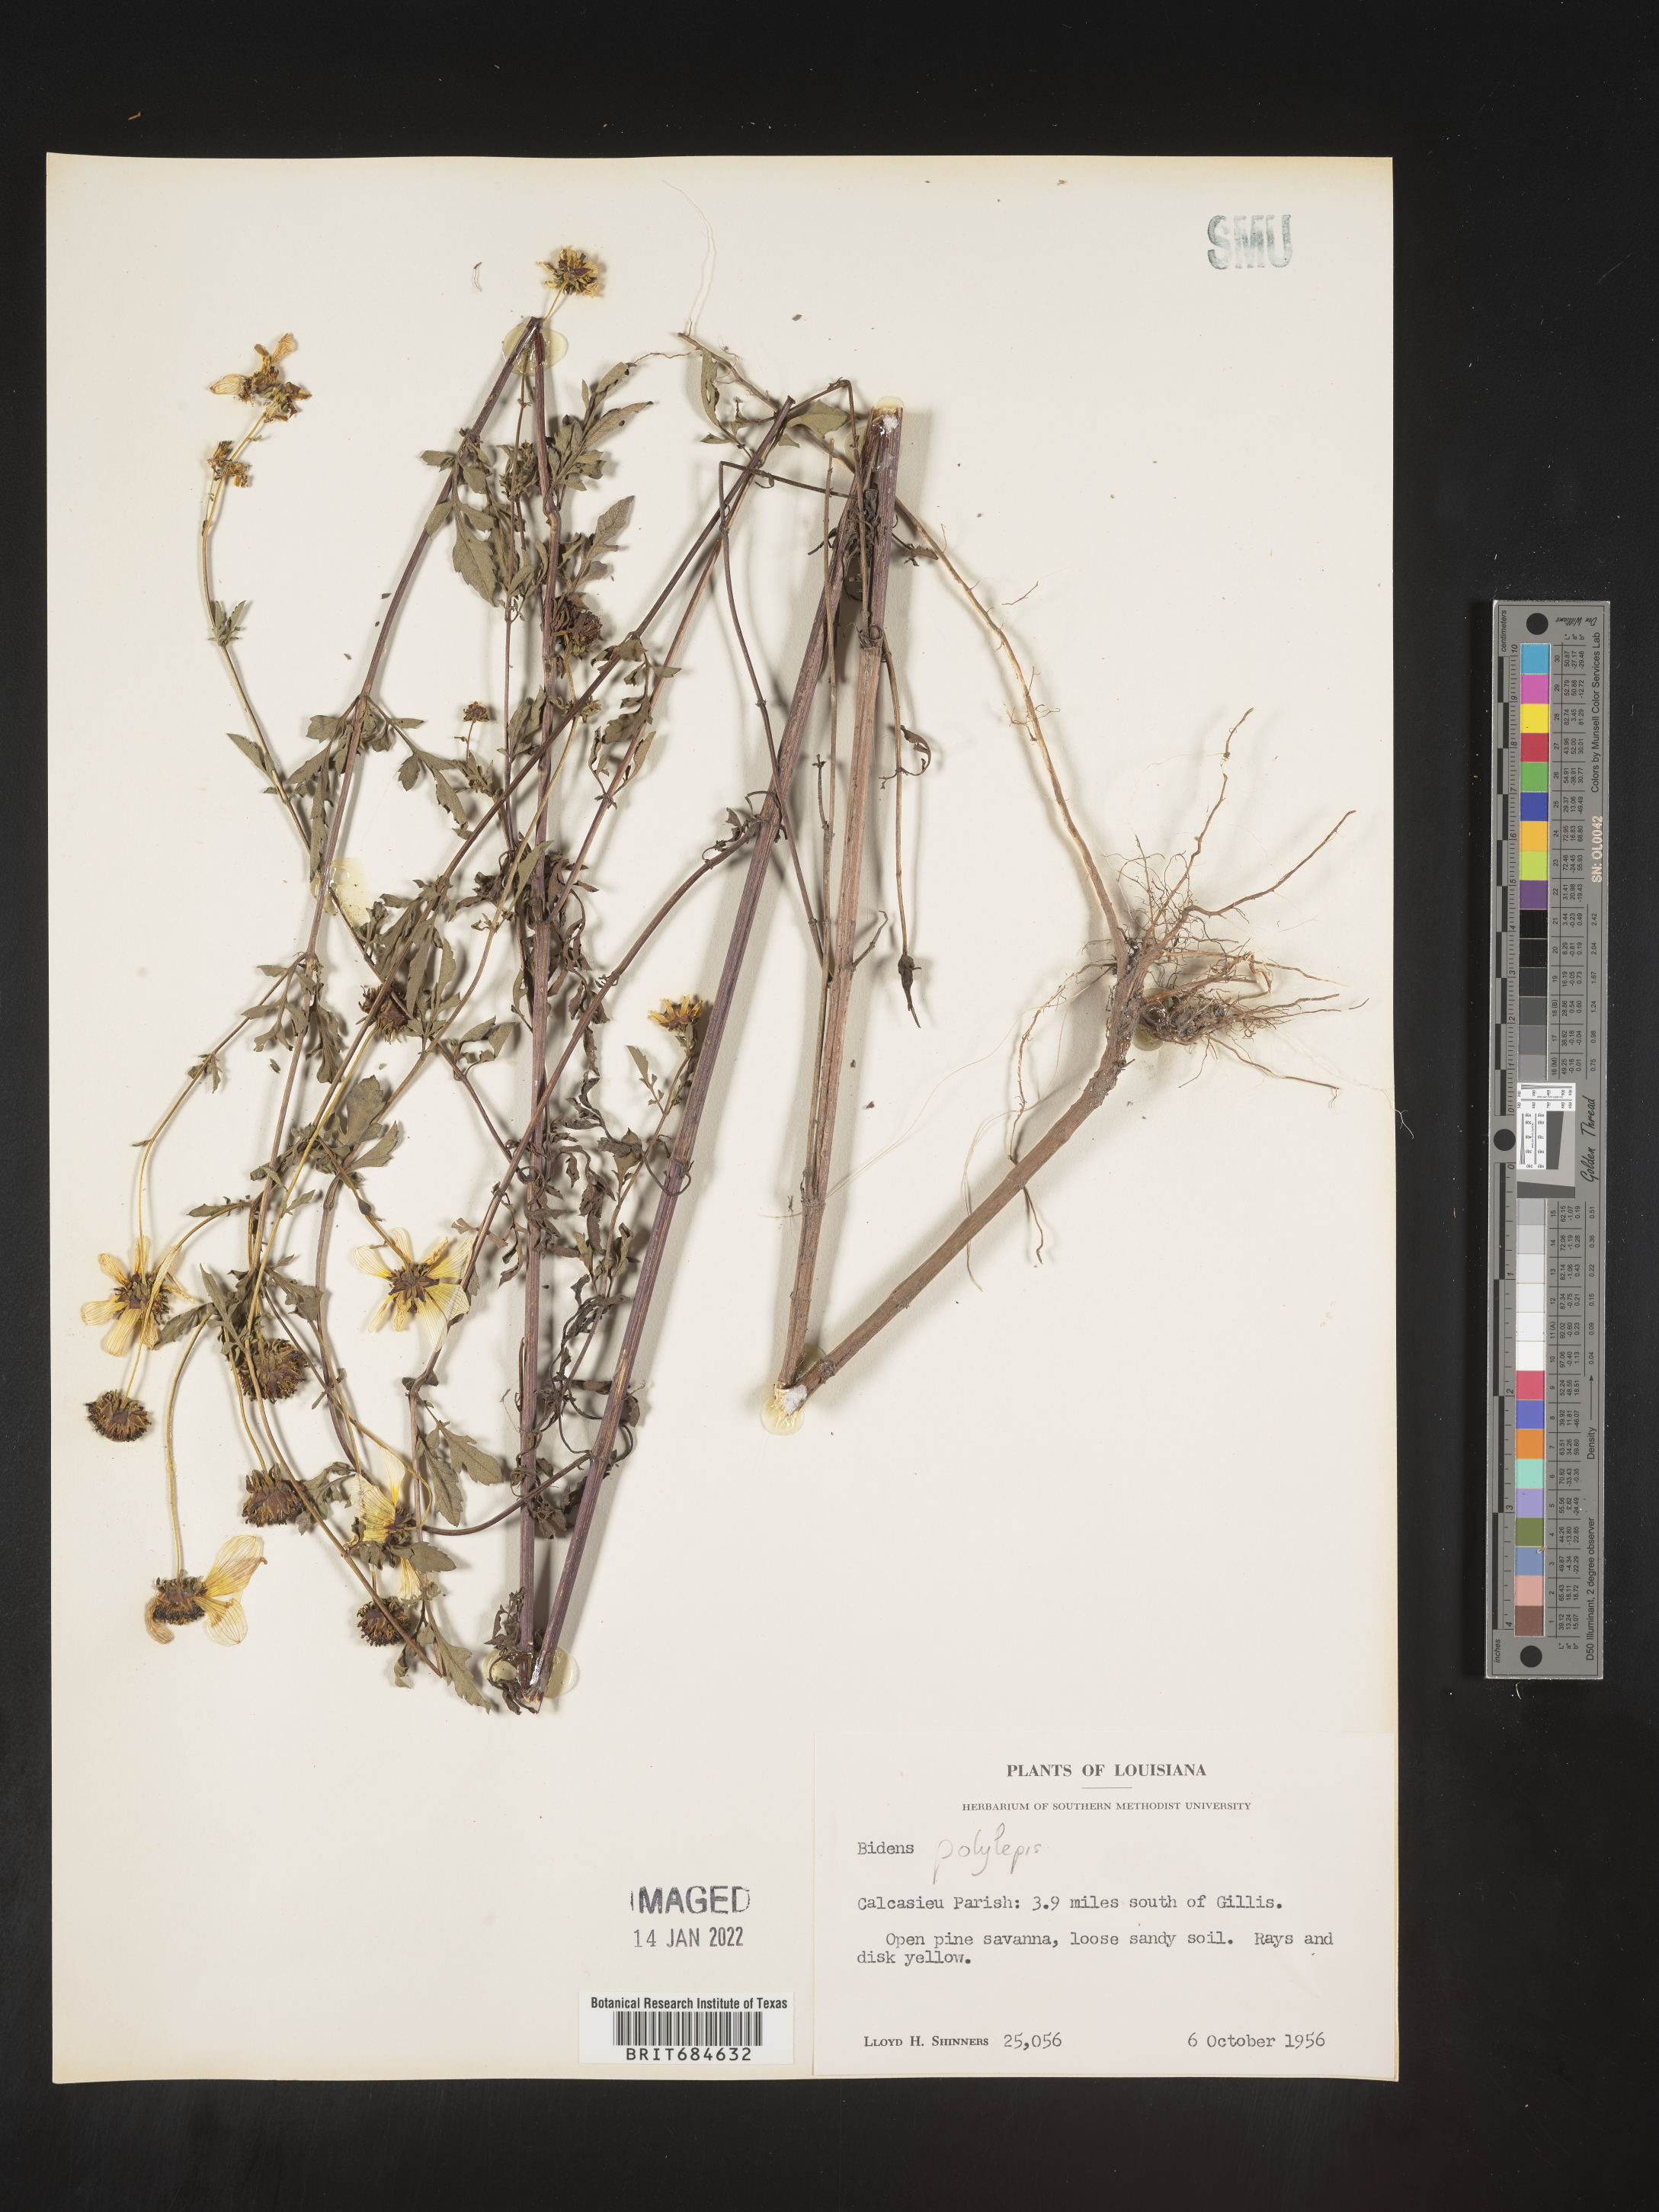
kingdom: Plantae
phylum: Tracheophyta
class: Magnoliopsida
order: Asterales
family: Asteraceae
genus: Bidens
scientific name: Bidens polylepis
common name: Awnless beggarticks
